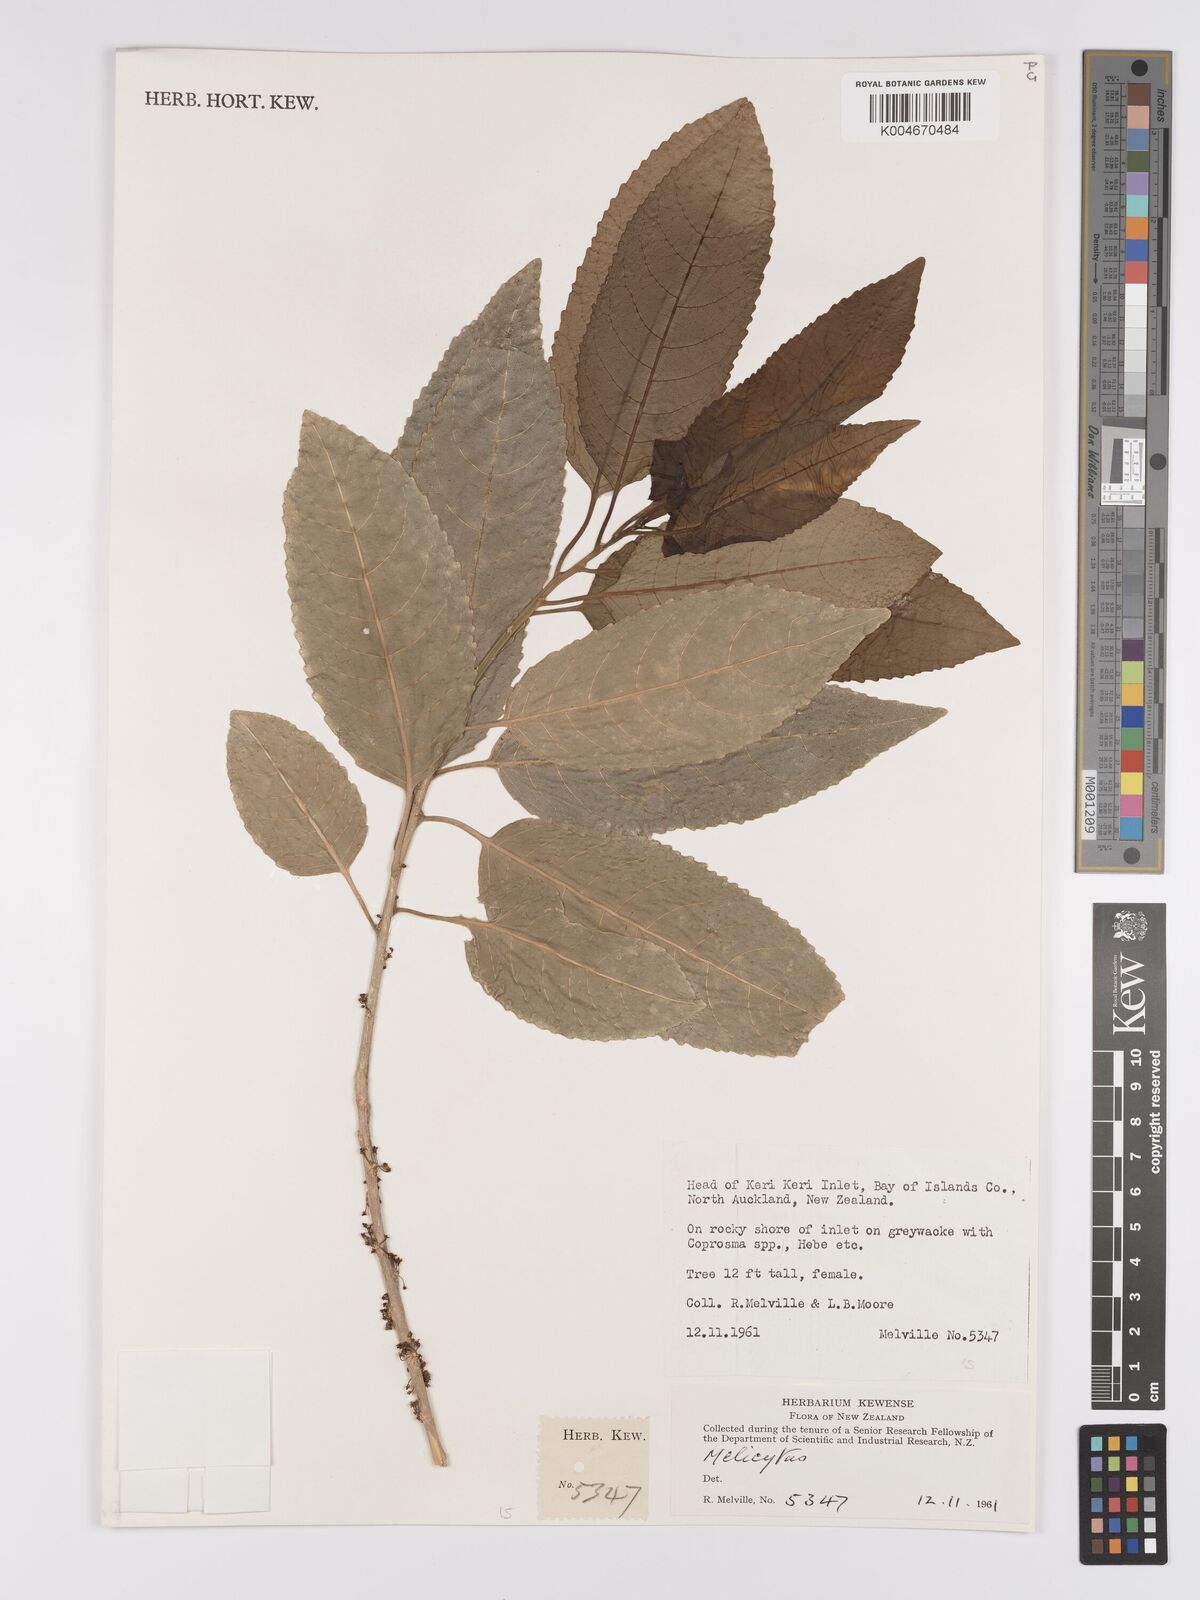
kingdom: Plantae
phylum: Tracheophyta
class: Magnoliopsida
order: Malpighiales
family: Violaceae
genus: Melicytus
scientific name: Melicytus
